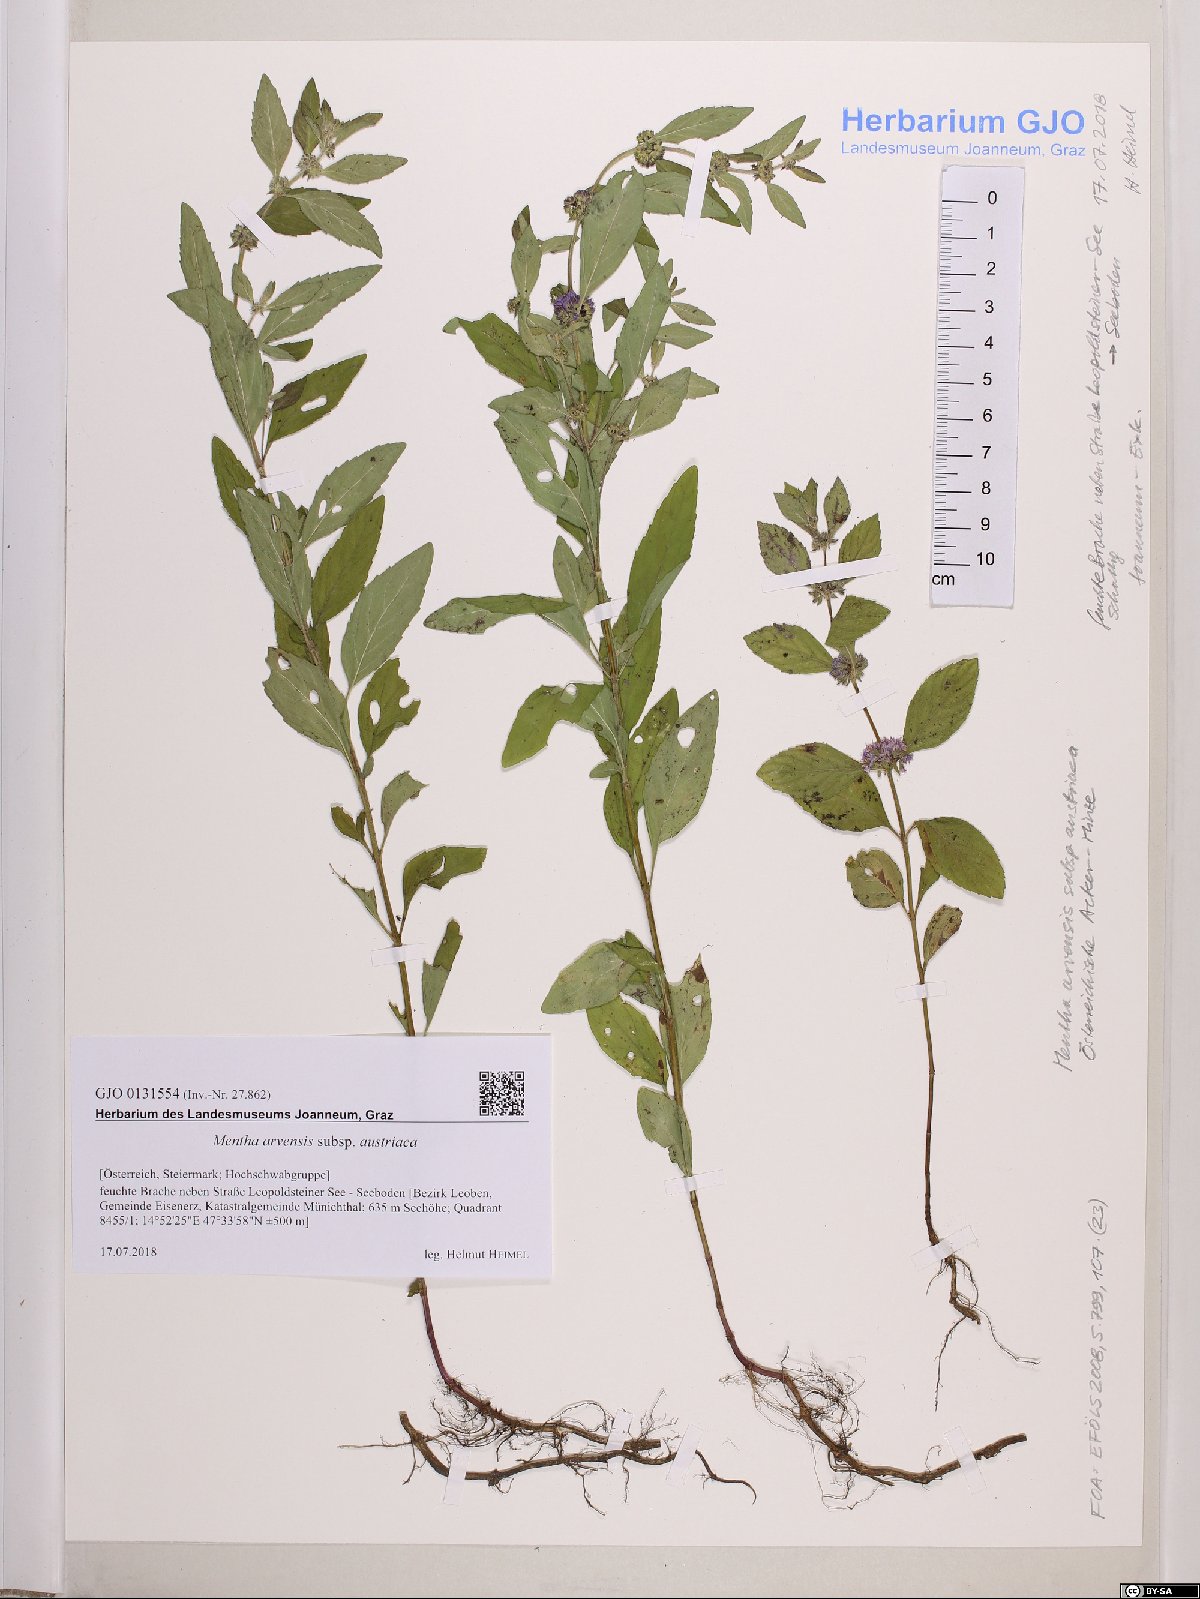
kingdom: Plantae
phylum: Tracheophyta
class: Magnoliopsida
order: Lamiales
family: Lamiaceae
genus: Mentha
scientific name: Mentha arvensis
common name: Corn mint
